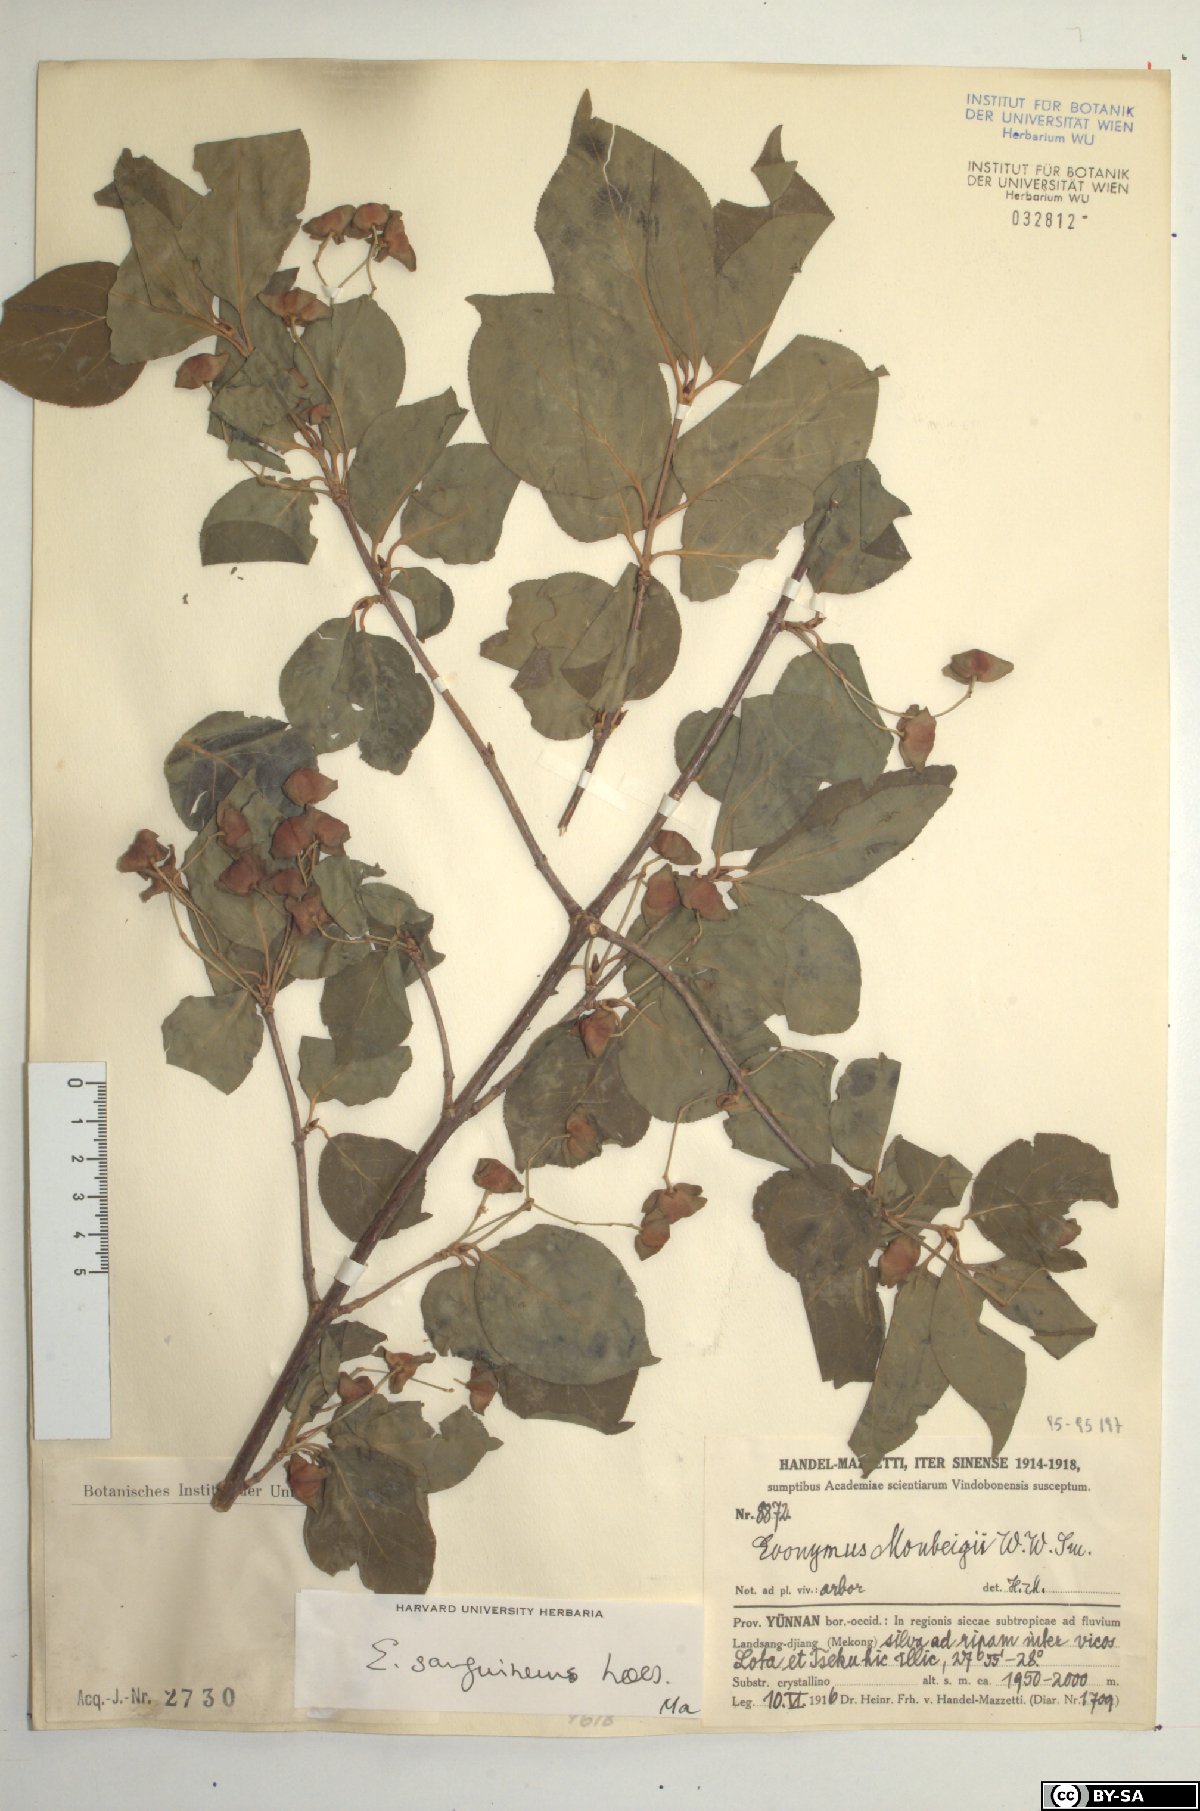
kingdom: Plantae
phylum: Tracheophyta
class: Magnoliopsida
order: Celastrales
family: Celastraceae
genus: Euonymus
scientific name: Euonymus sanguineus
